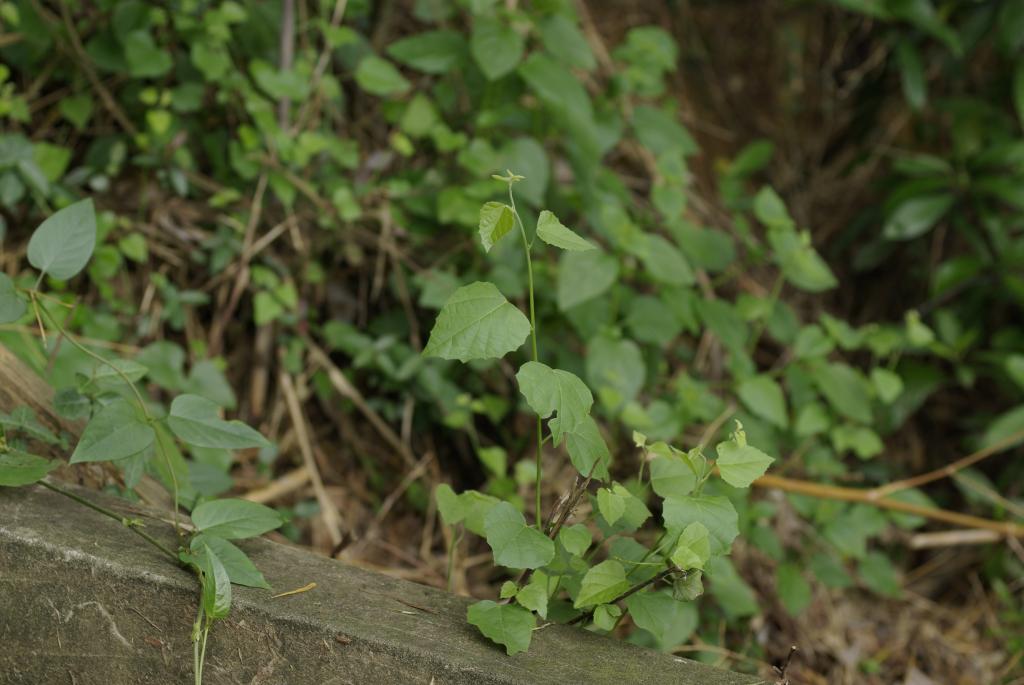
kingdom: Plantae
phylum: Tracheophyta
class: Magnoliopsida
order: Malpighiales
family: Euphorbiaceae
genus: Mallotus
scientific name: Mallotus repandus
